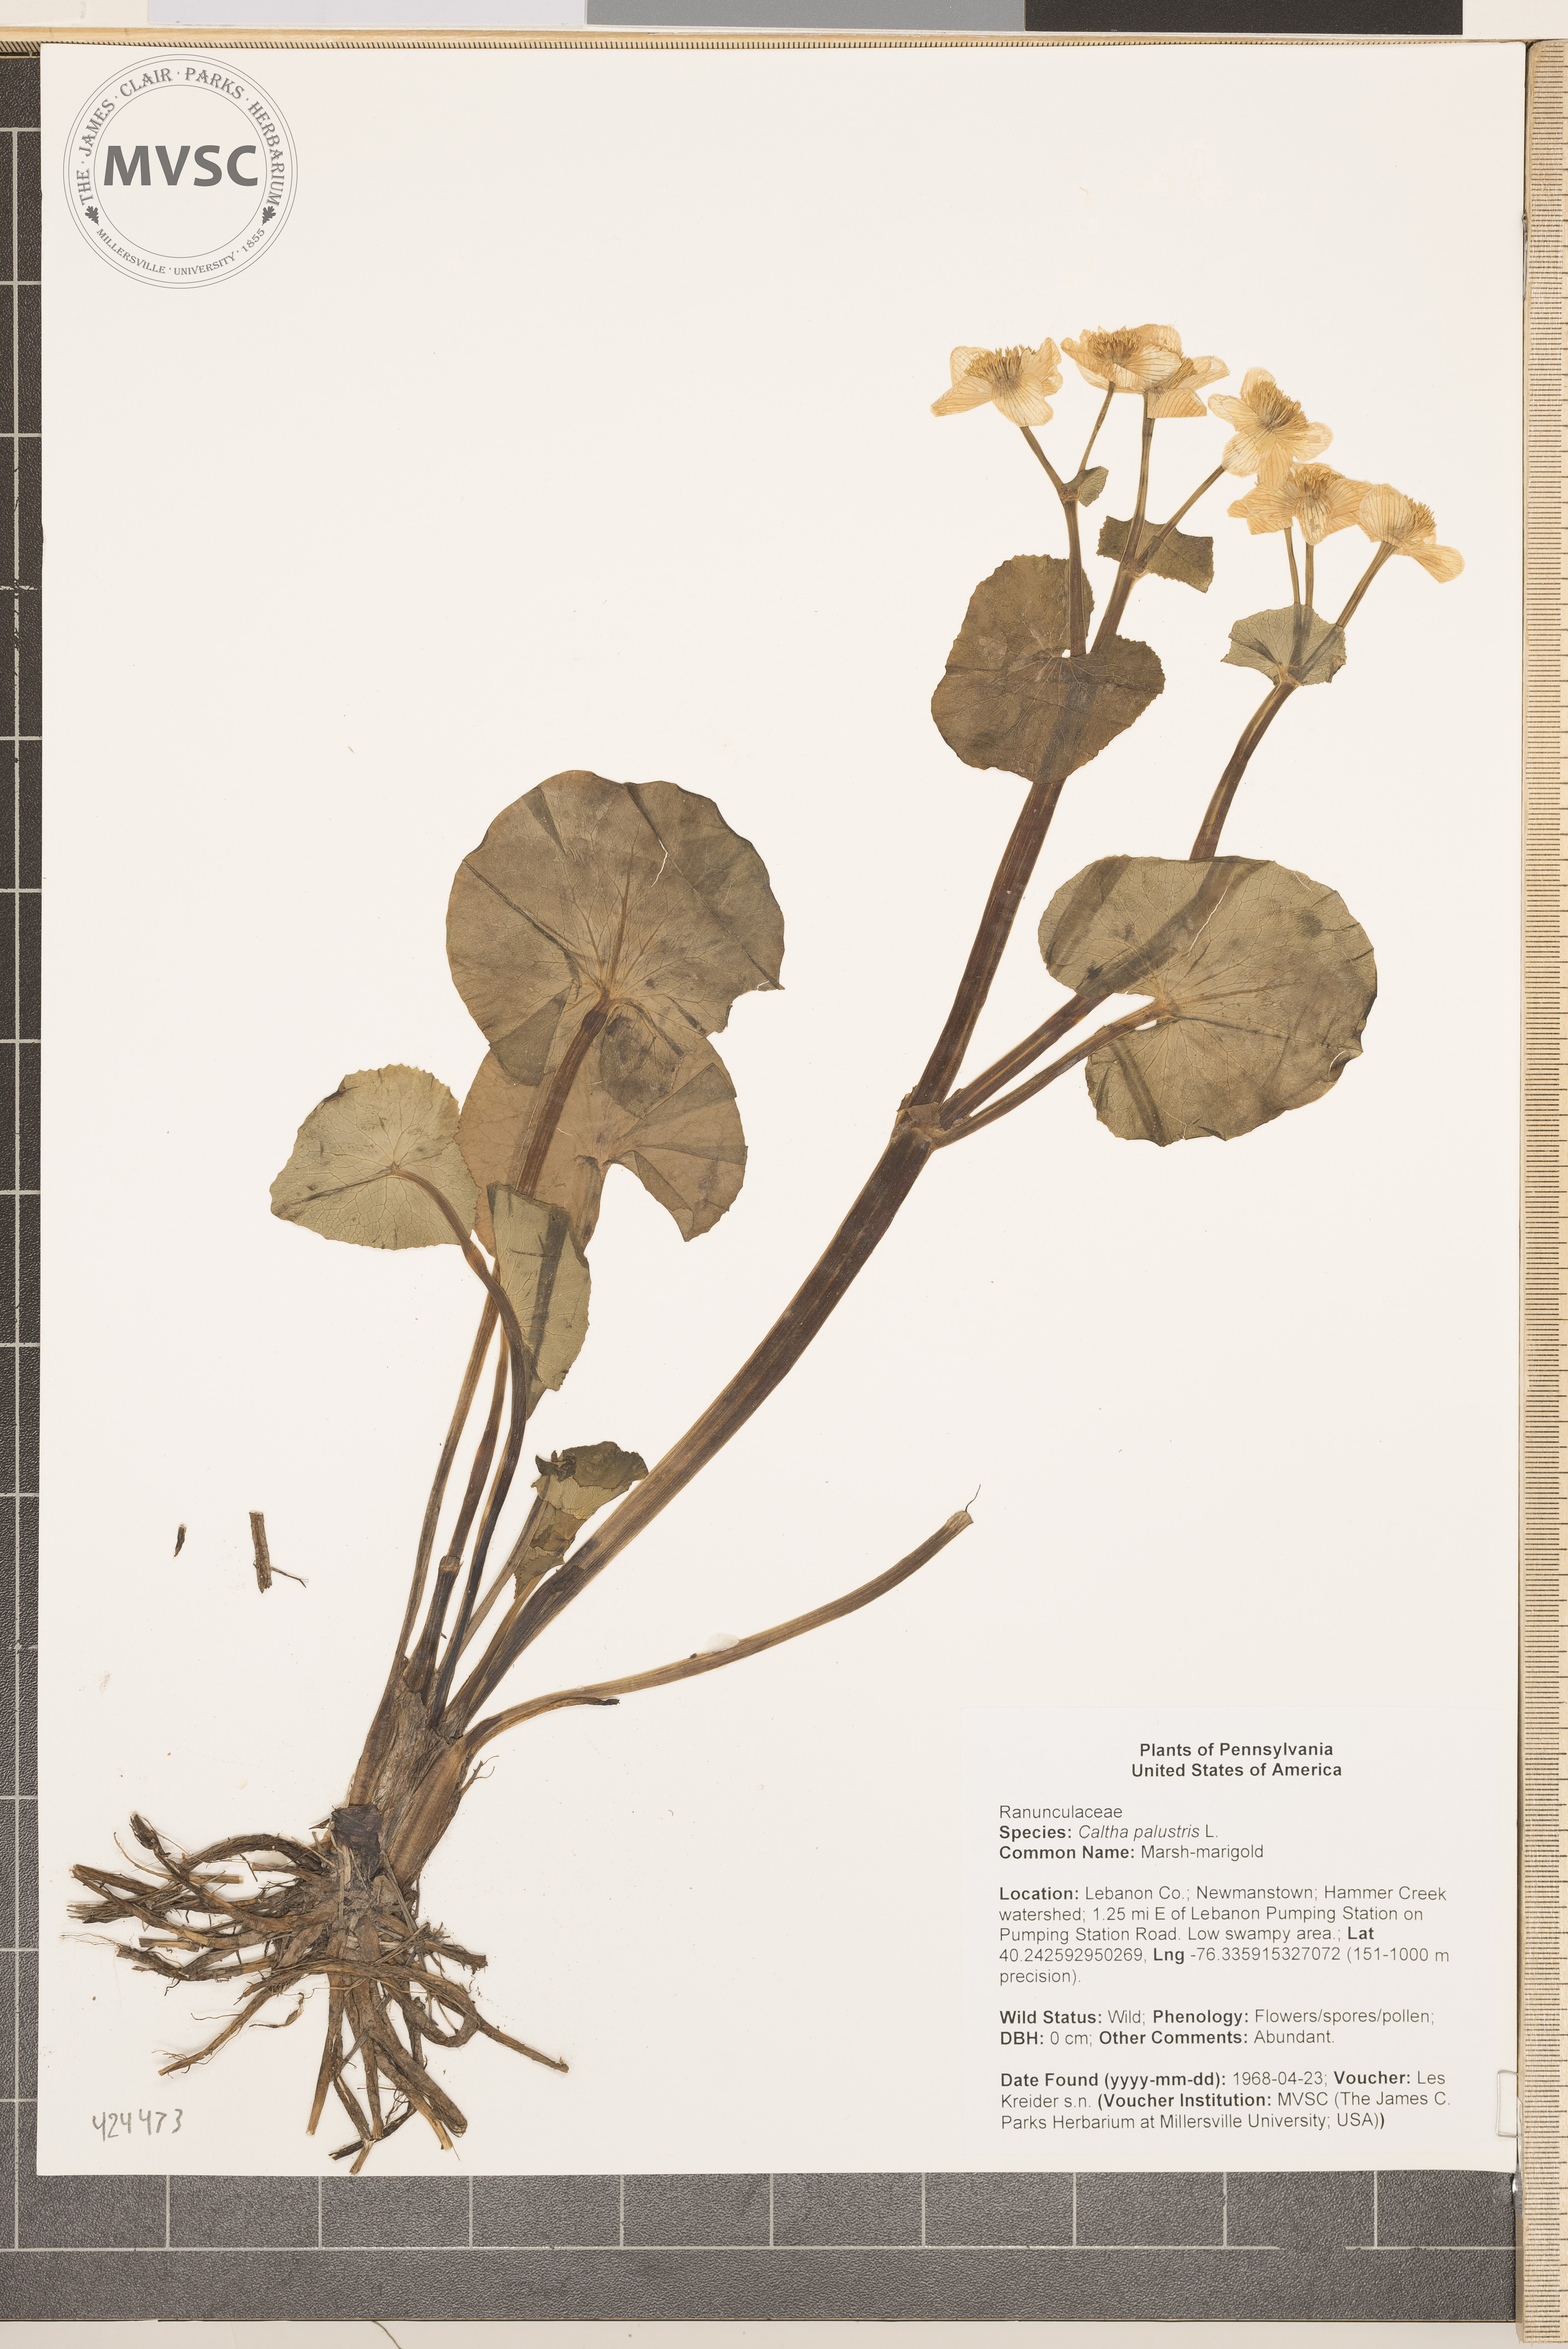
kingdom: Plantae
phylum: Tracheophyta
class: Magnoliopsida
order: Ranunculales
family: Ranunculaceae
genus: Caltha
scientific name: Caltha palustris
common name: Marsh-marigold
